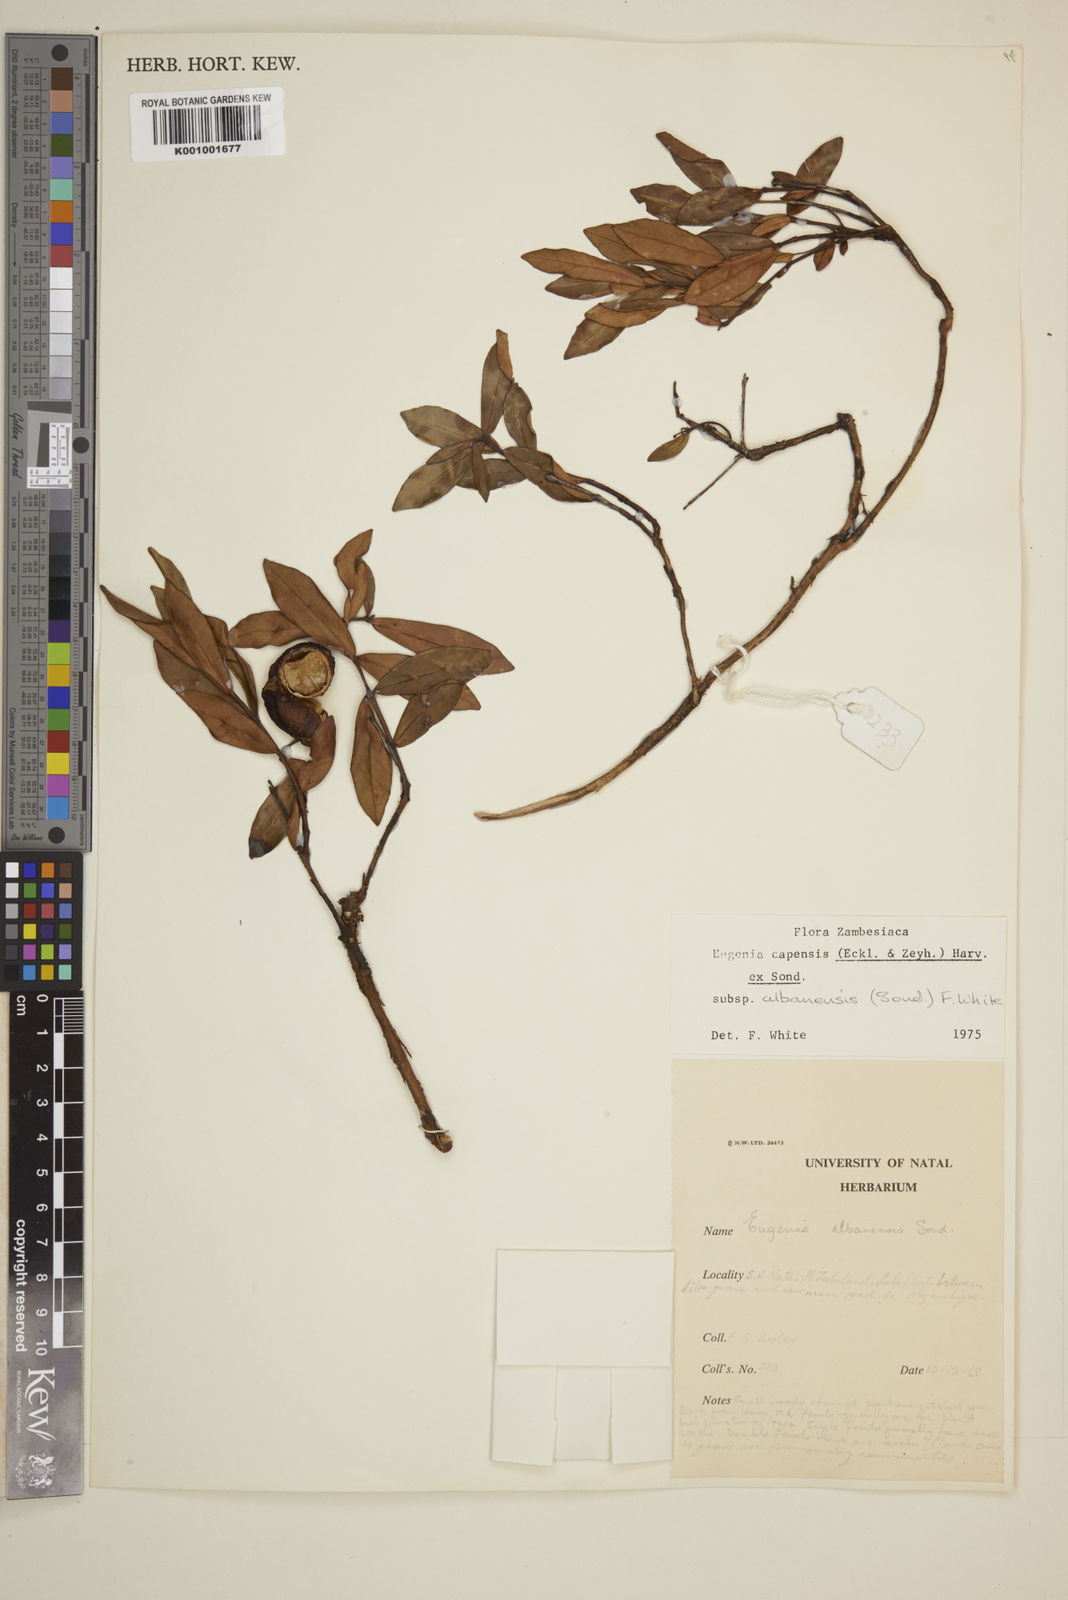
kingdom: Plantae
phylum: Tracheophyta
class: Magnoliopsida
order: Myrtales
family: Myrtaceae
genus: Eugenia
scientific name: Eugenia capensis
